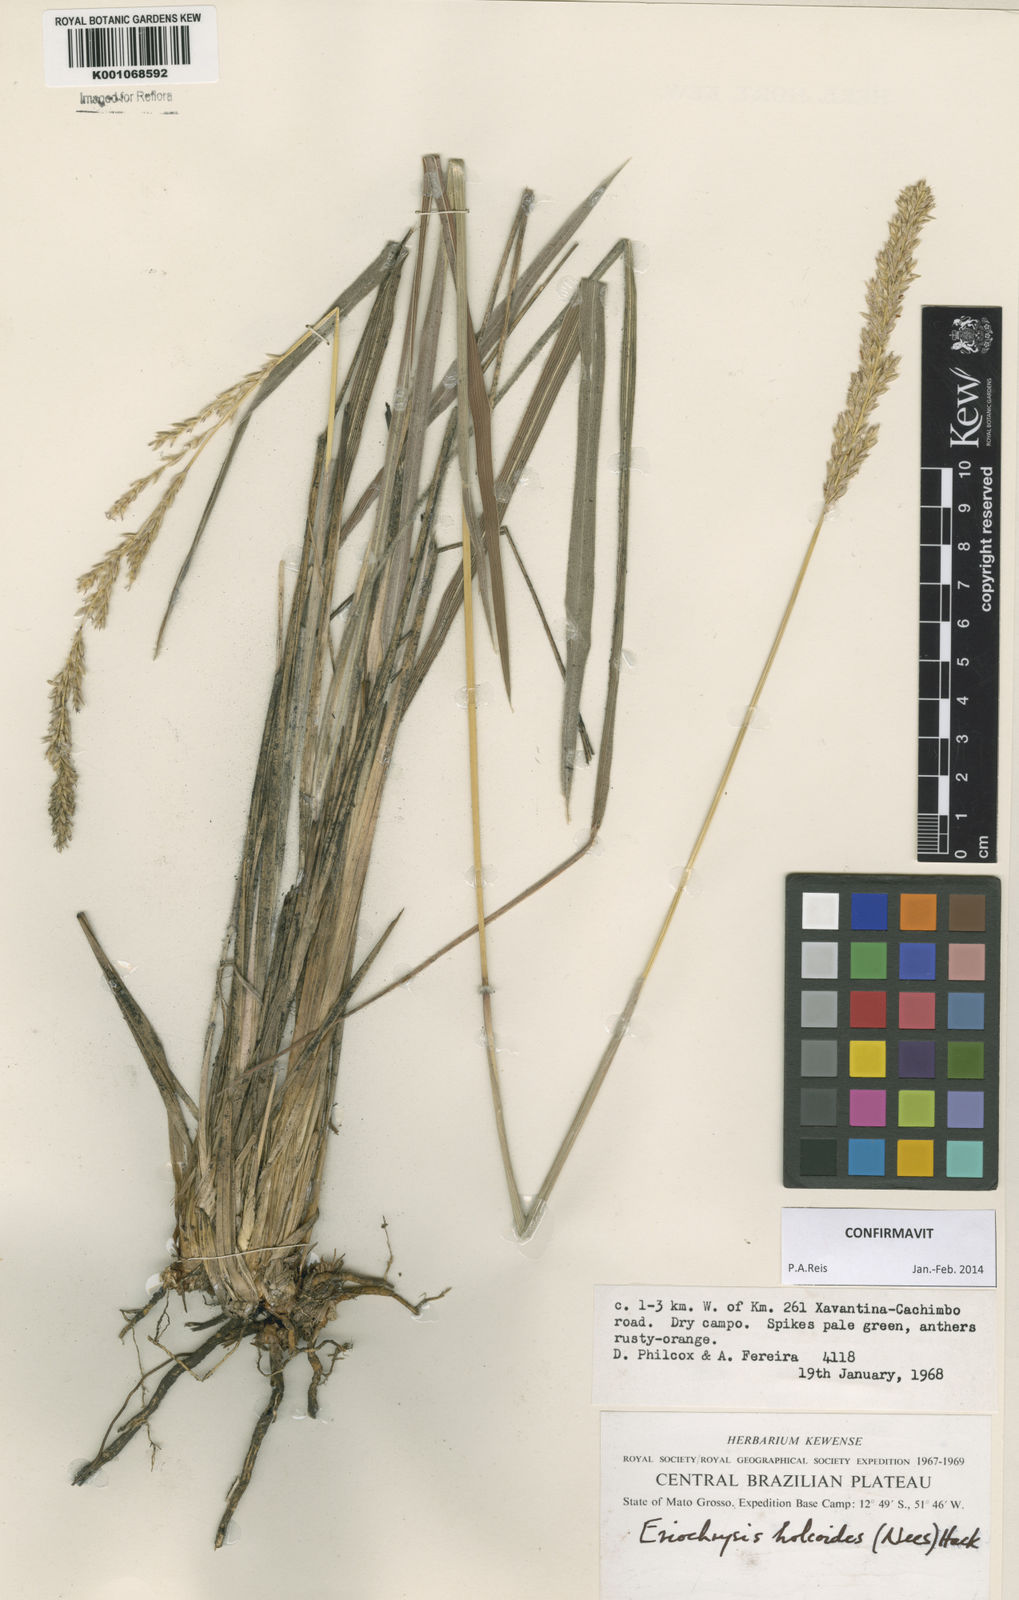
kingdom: Plantae
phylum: Tracheophyta
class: Liliopsida
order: Poales
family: Poaceae
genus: Eriochrysis
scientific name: Eriochrysis holcoides
